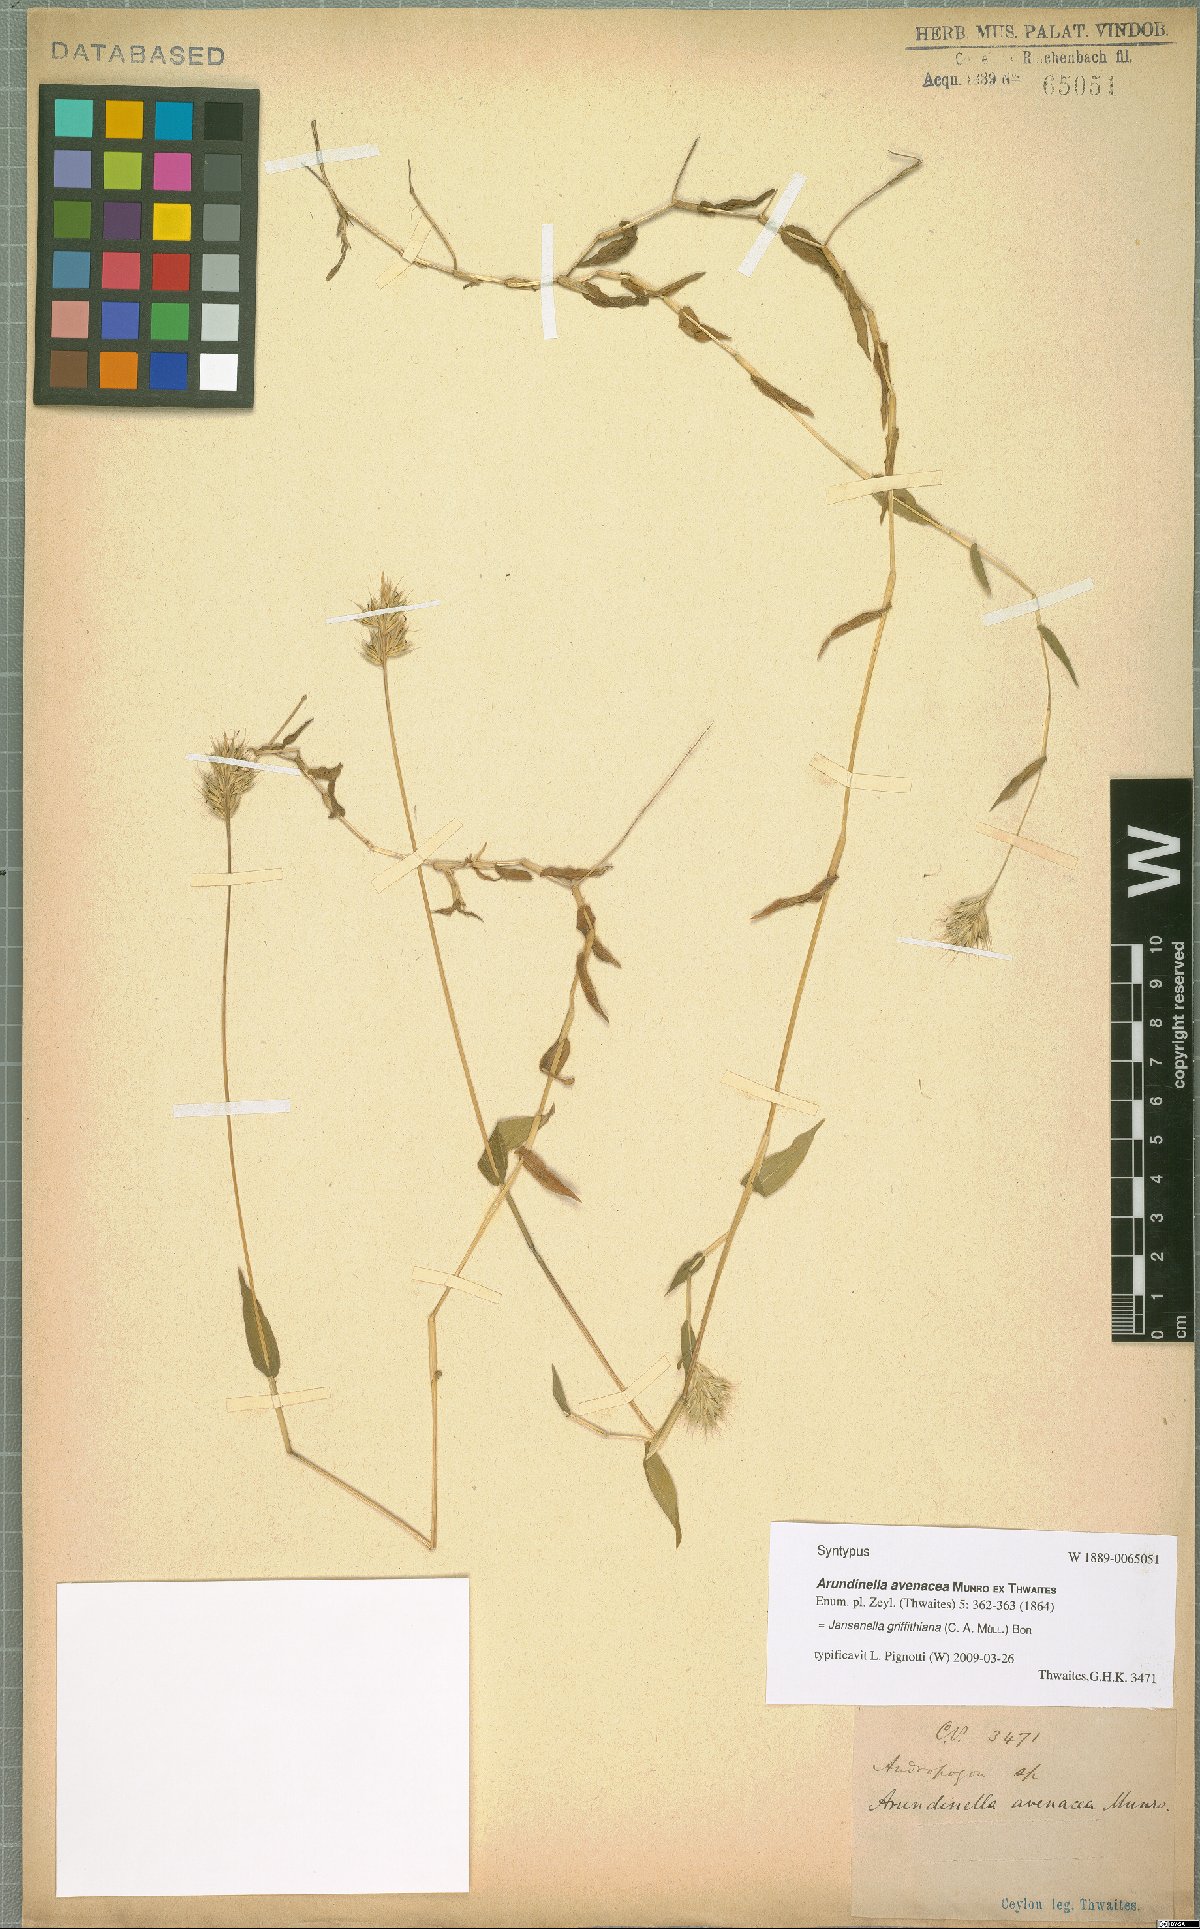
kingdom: Plantae
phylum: Tracheophyta
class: Liliopsida
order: Poales
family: Poaceae
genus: Jansenella
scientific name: Jansenella griffithiana
